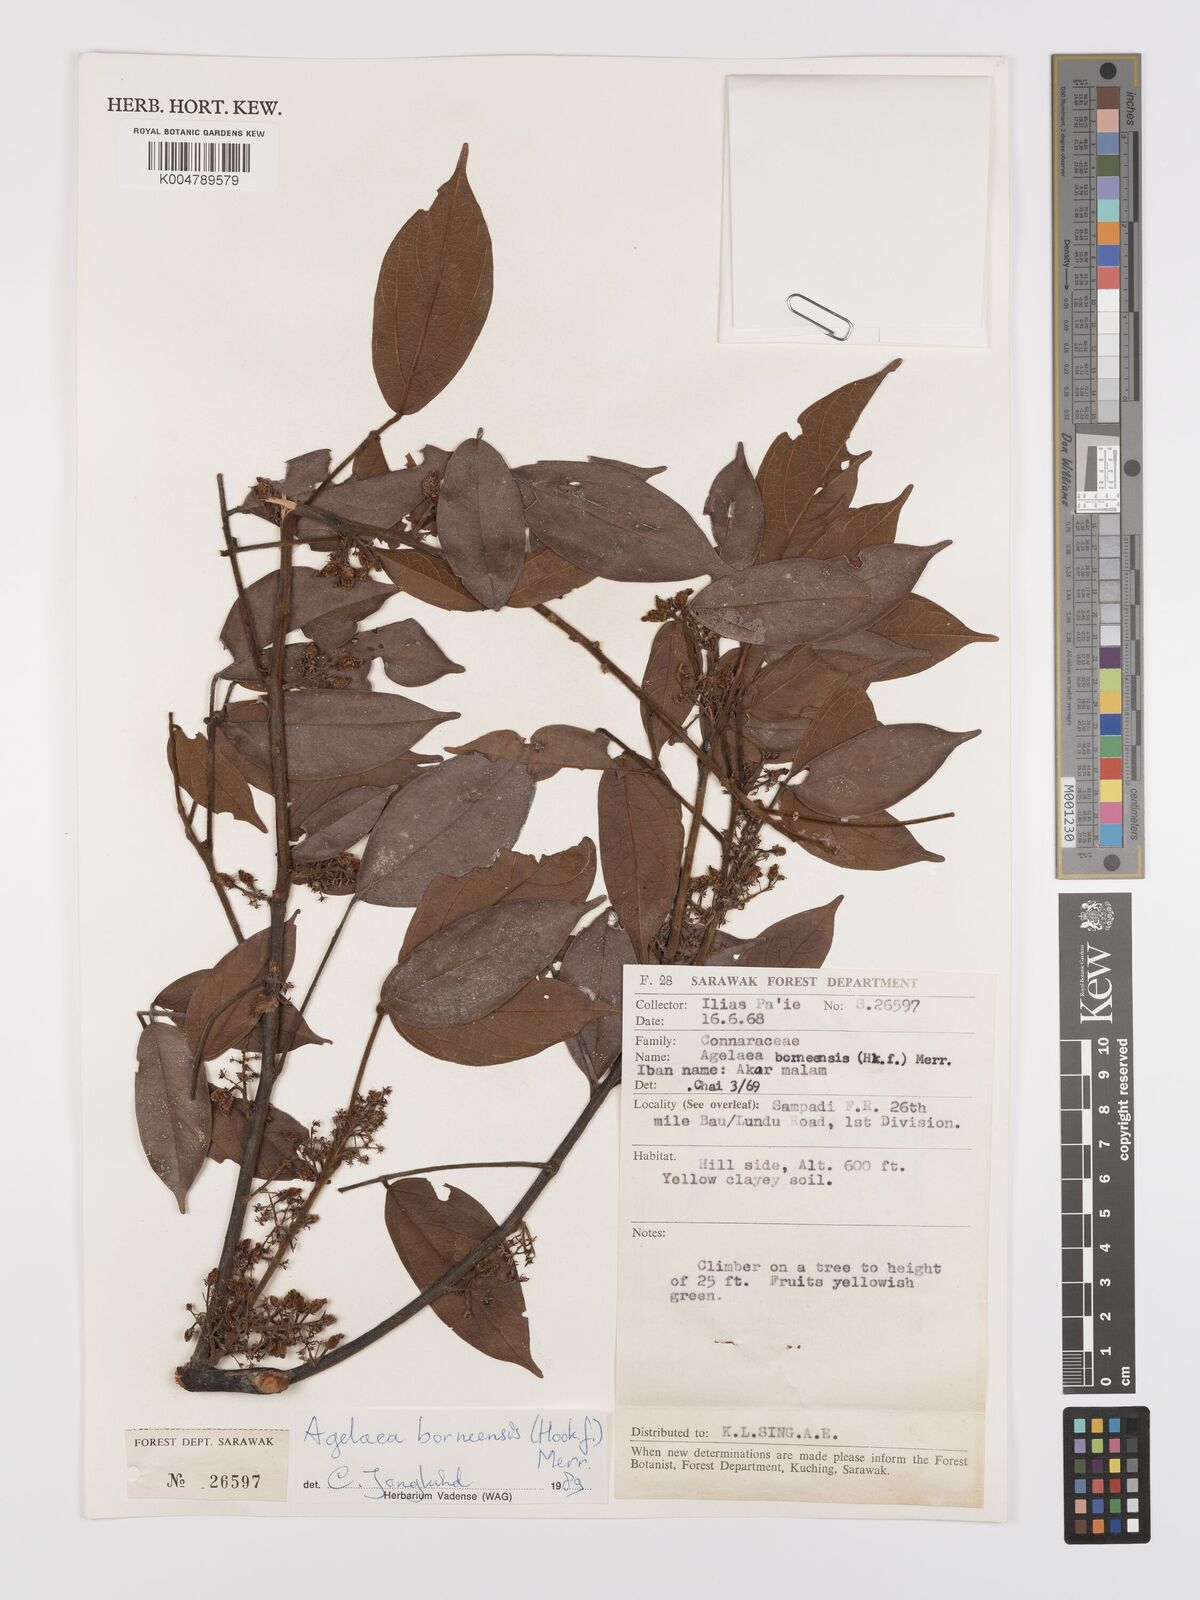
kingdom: Plantae
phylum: Tracheophyta
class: Magnoliopsida
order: Oxalidales
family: Connaraceae
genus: Agelaea
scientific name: Agelaea borneensis
